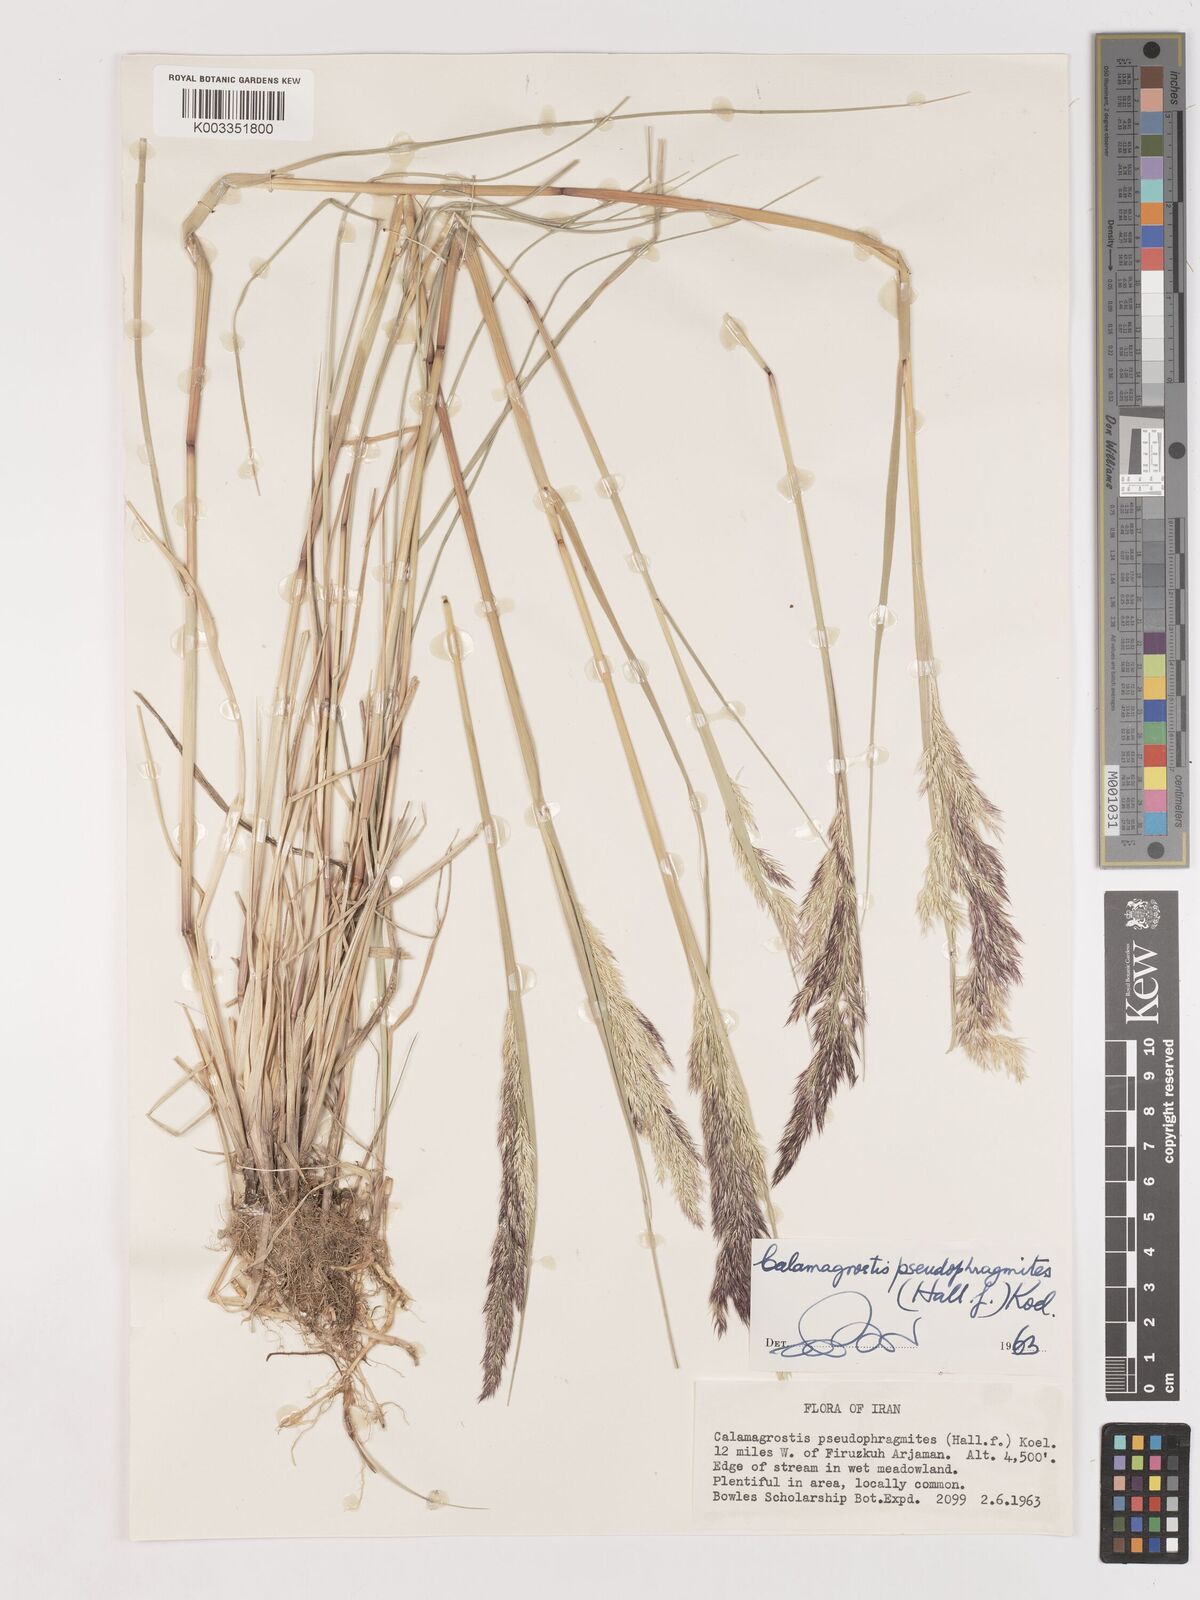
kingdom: Plantae
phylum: Tracheophyta
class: Liliopsida
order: Poales
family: Poaceae
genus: Calamagrostis
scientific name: Calamagrostis pseudophragmites
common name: Coastal small-reed
